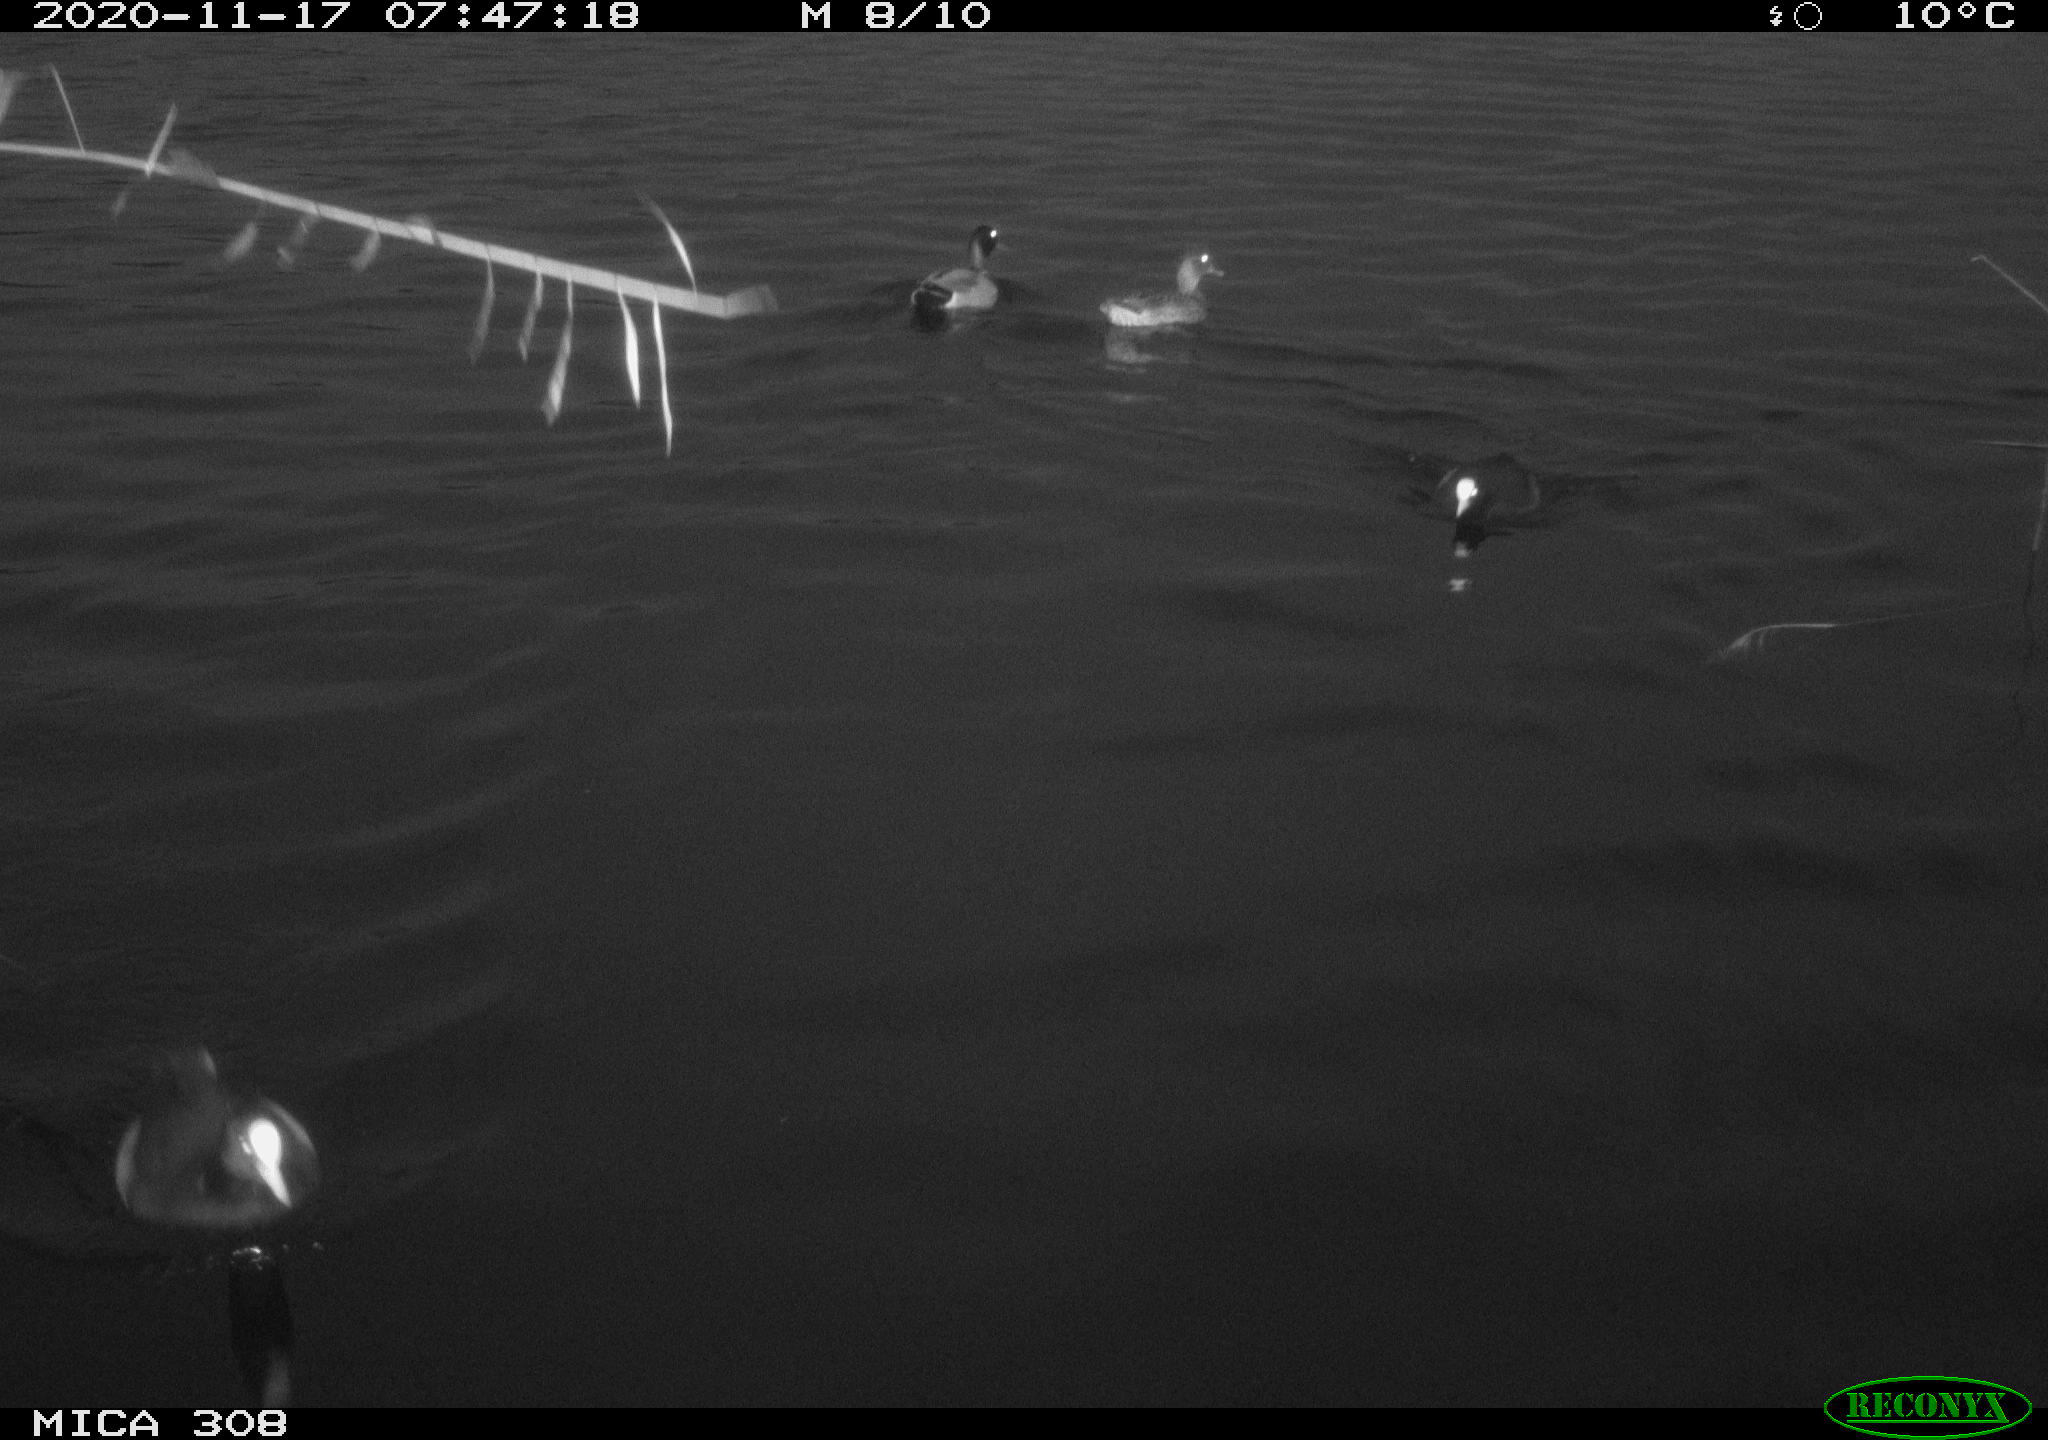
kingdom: Animalia
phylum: Chordata
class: Aves
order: Gruiformes
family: Rallidae
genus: Fulica
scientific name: Fulica atra
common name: Eurasian coot
